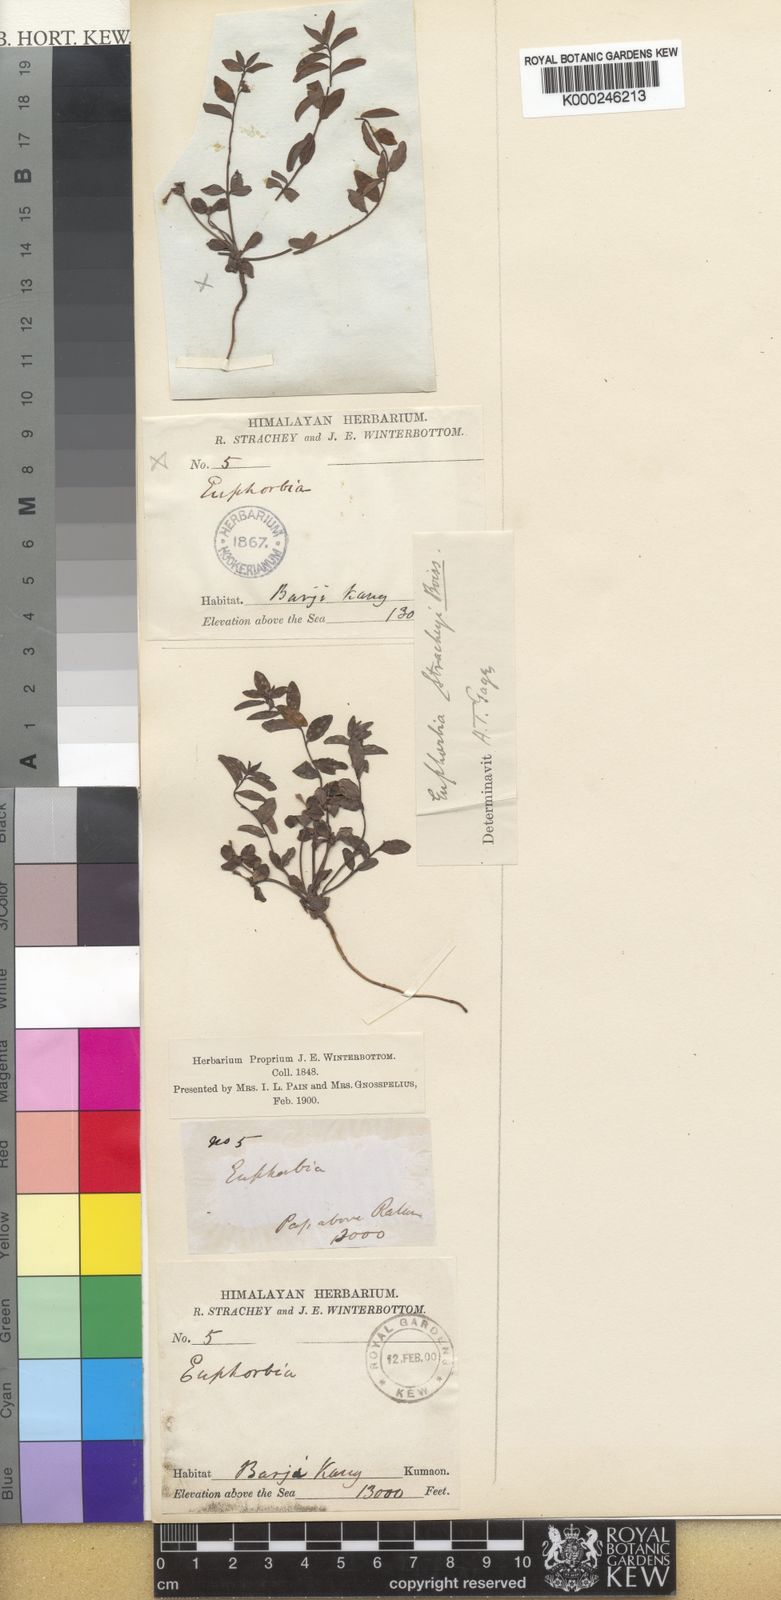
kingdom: Plantae
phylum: Tracheophyta
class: Magnoliopsida
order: Malpighiales
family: Euphorbiaceae
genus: Euphorbia
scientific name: Euphorbia stracheyi
